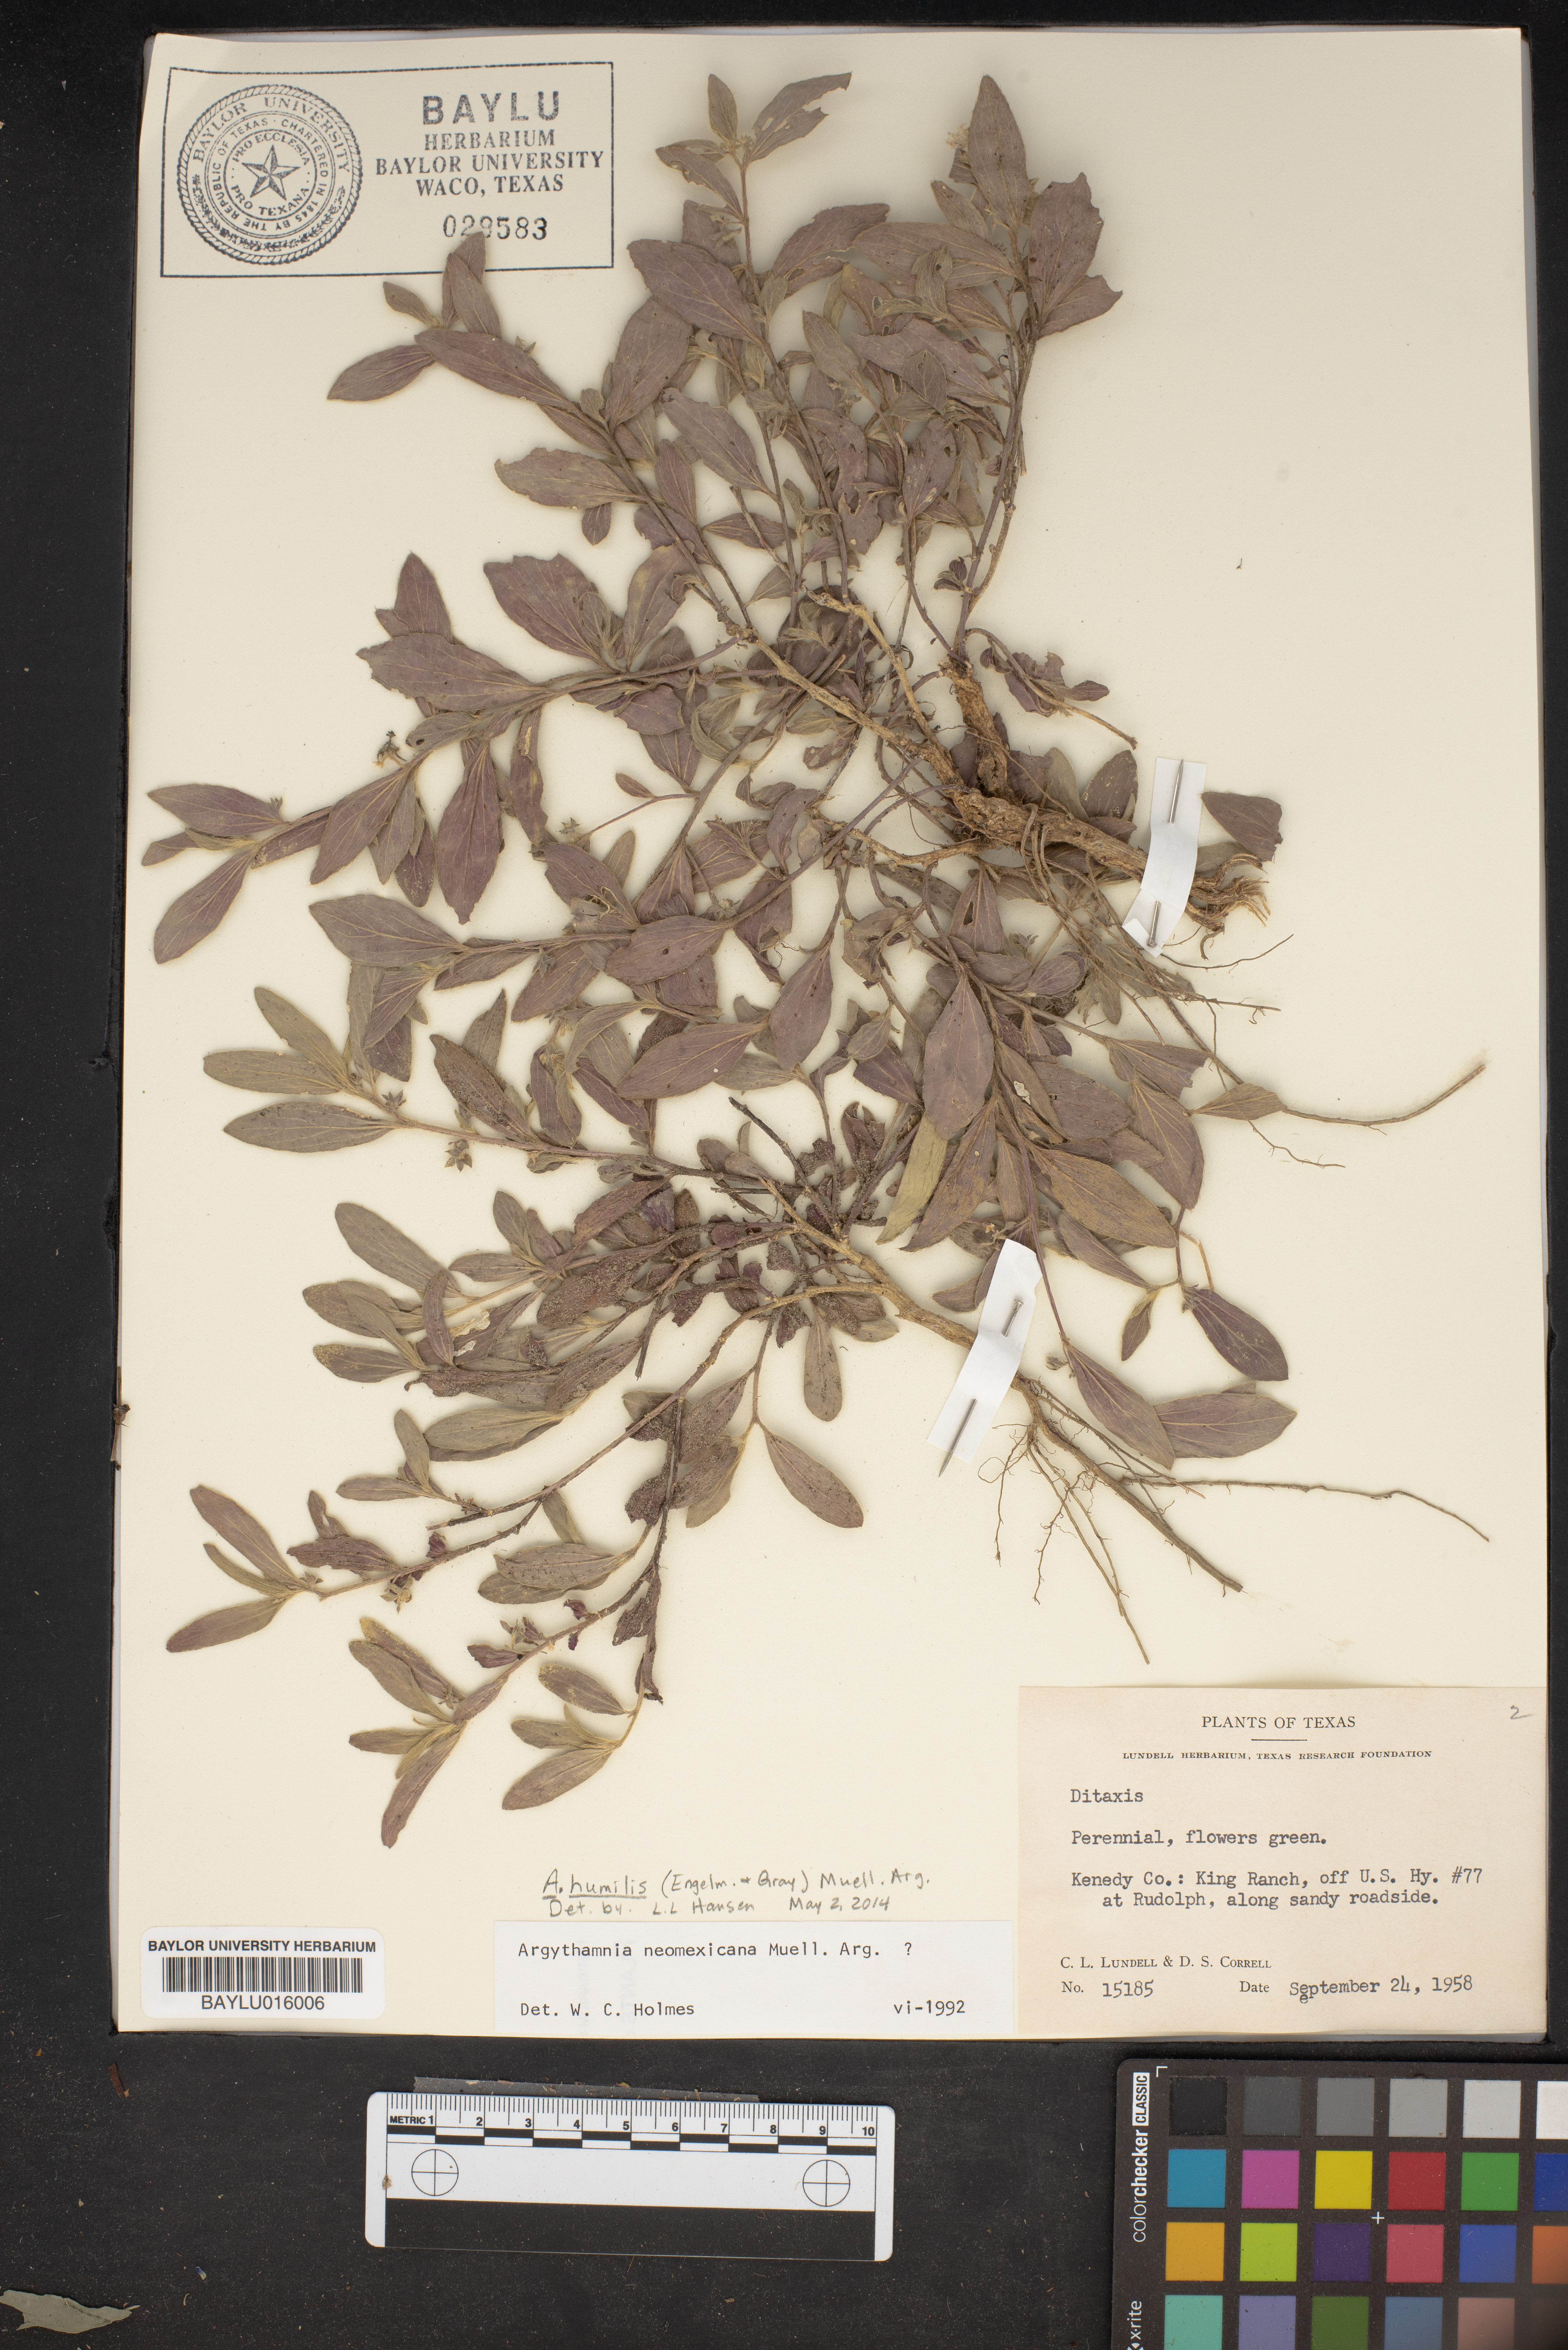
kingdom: Plantae
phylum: Tracheophyta
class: Magnoliopsida
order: Malpighiales
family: Euphorbiaceae
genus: Ditaxis
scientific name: Ditaxis serrata
